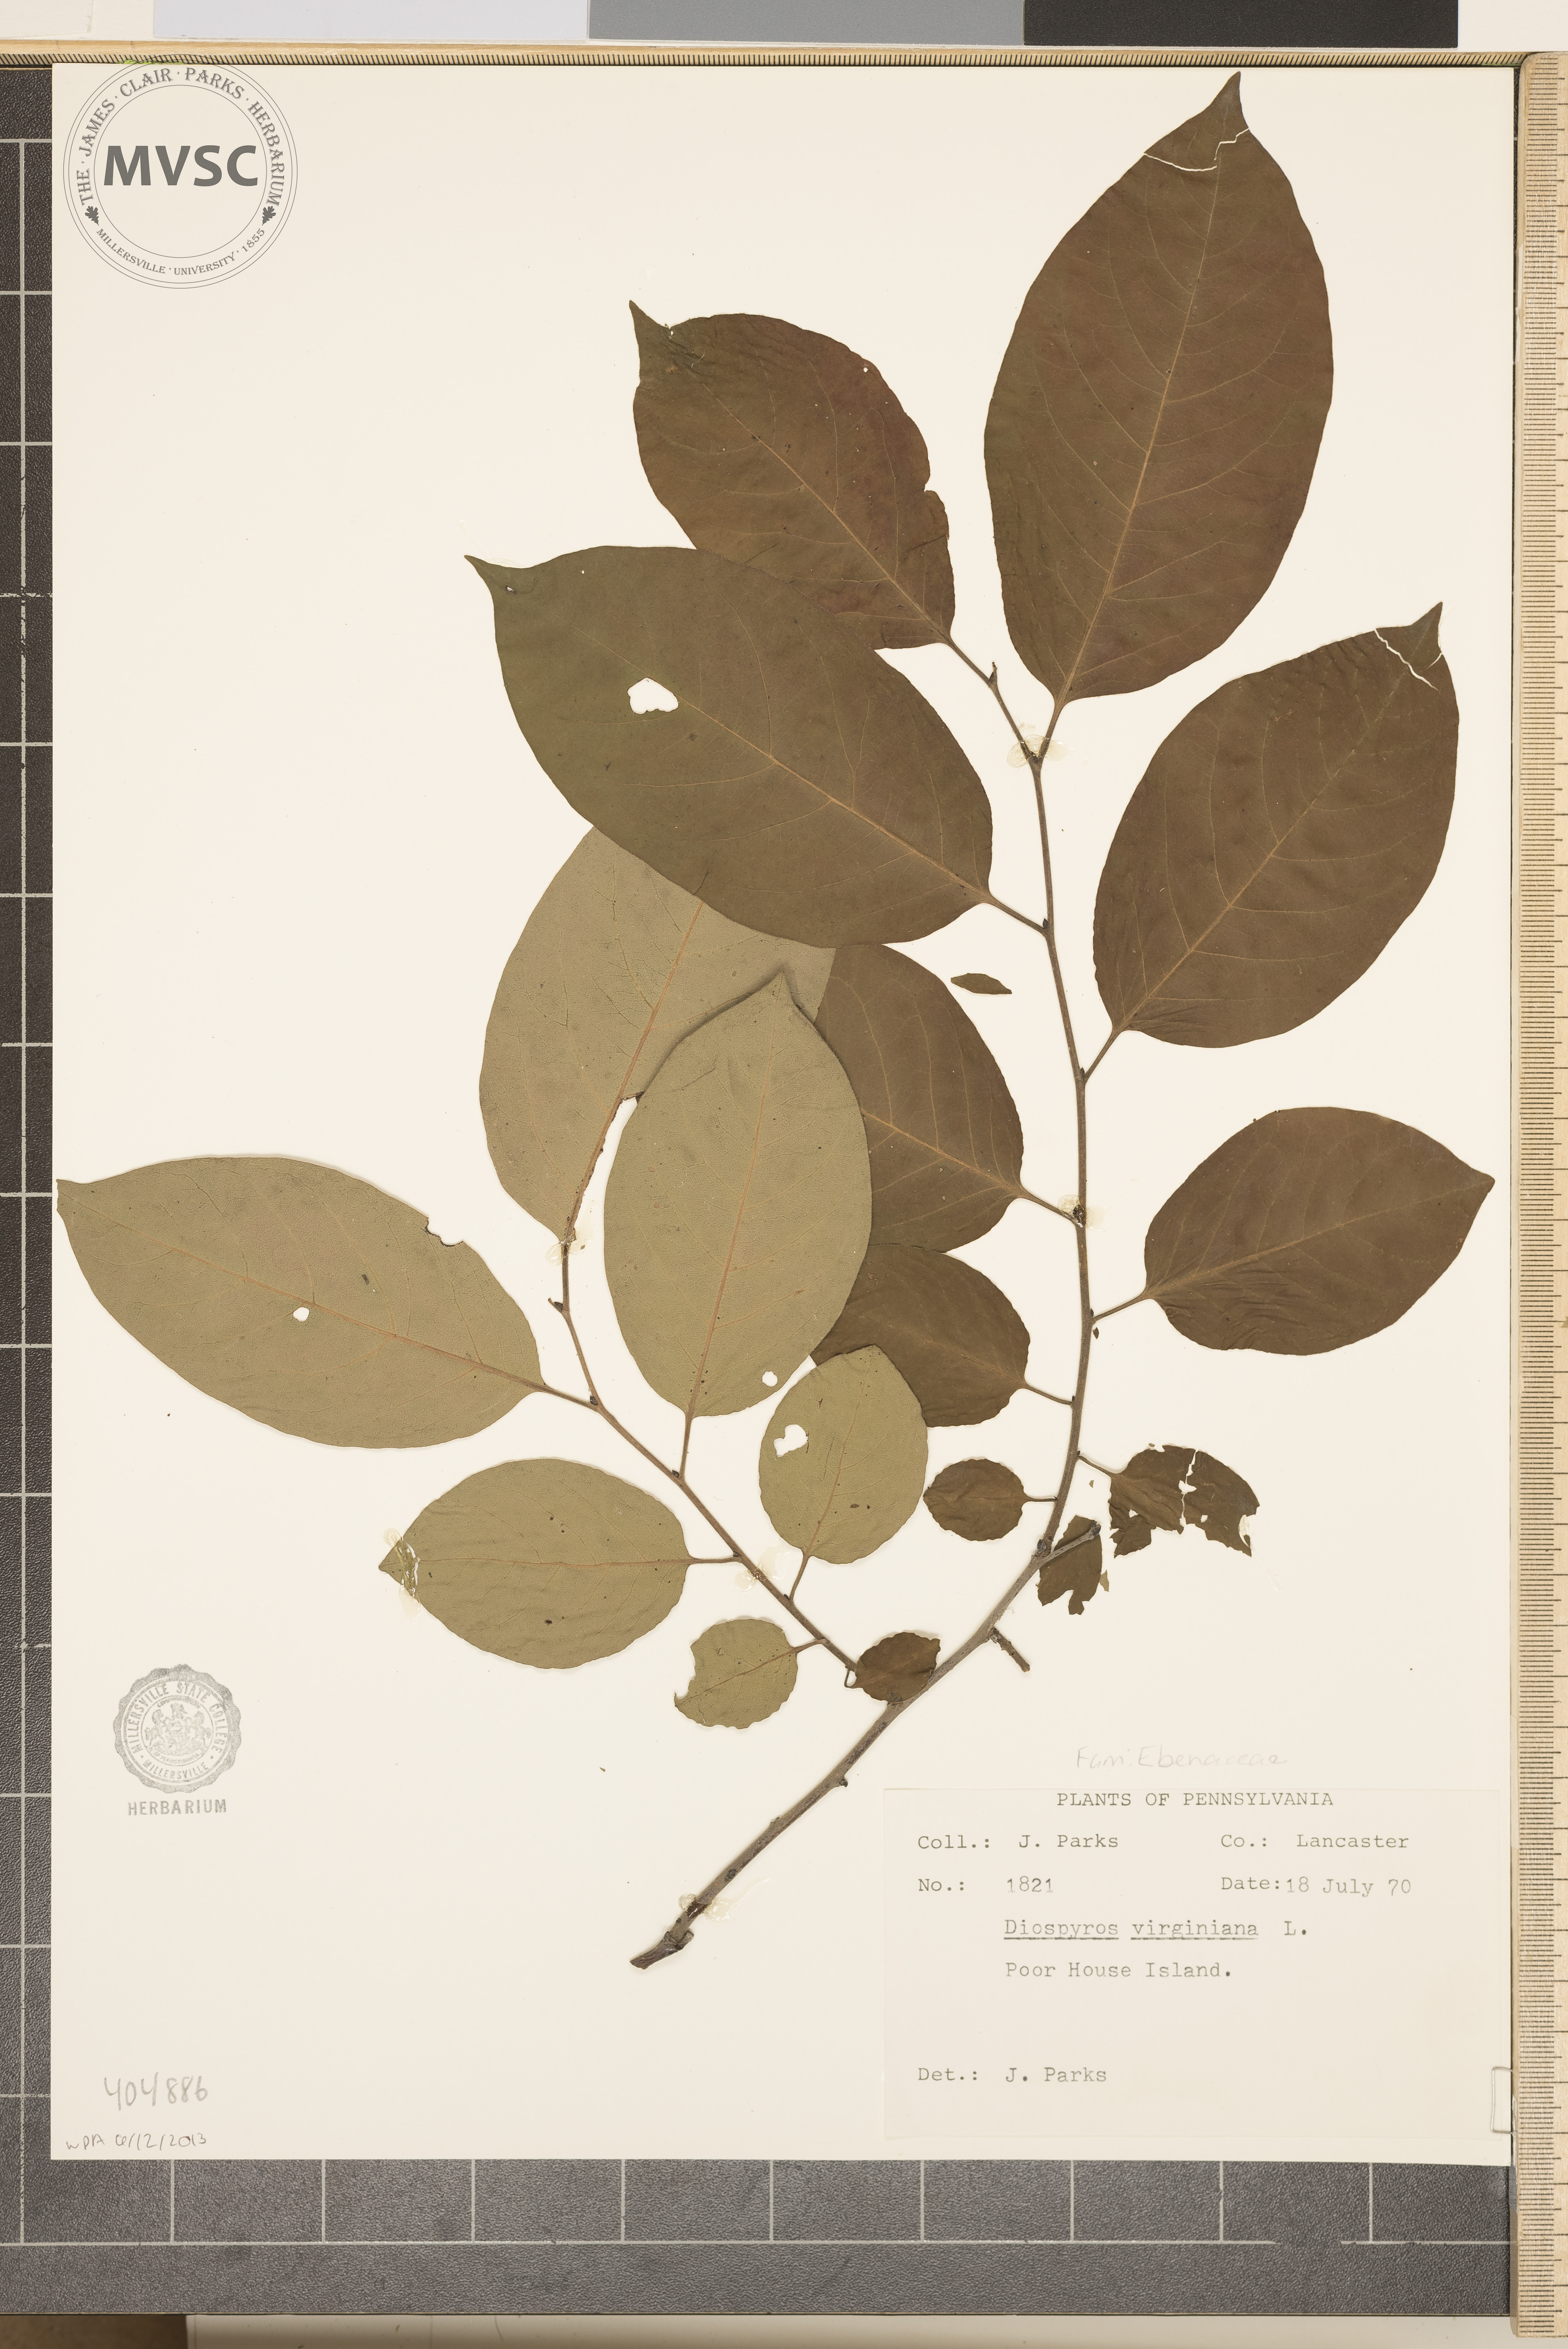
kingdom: Plantae
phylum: Tracheophyta
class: Magnoliopsida
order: Ericales
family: Ebenaceae
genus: Diospyros
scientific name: Diospyros virginiana
